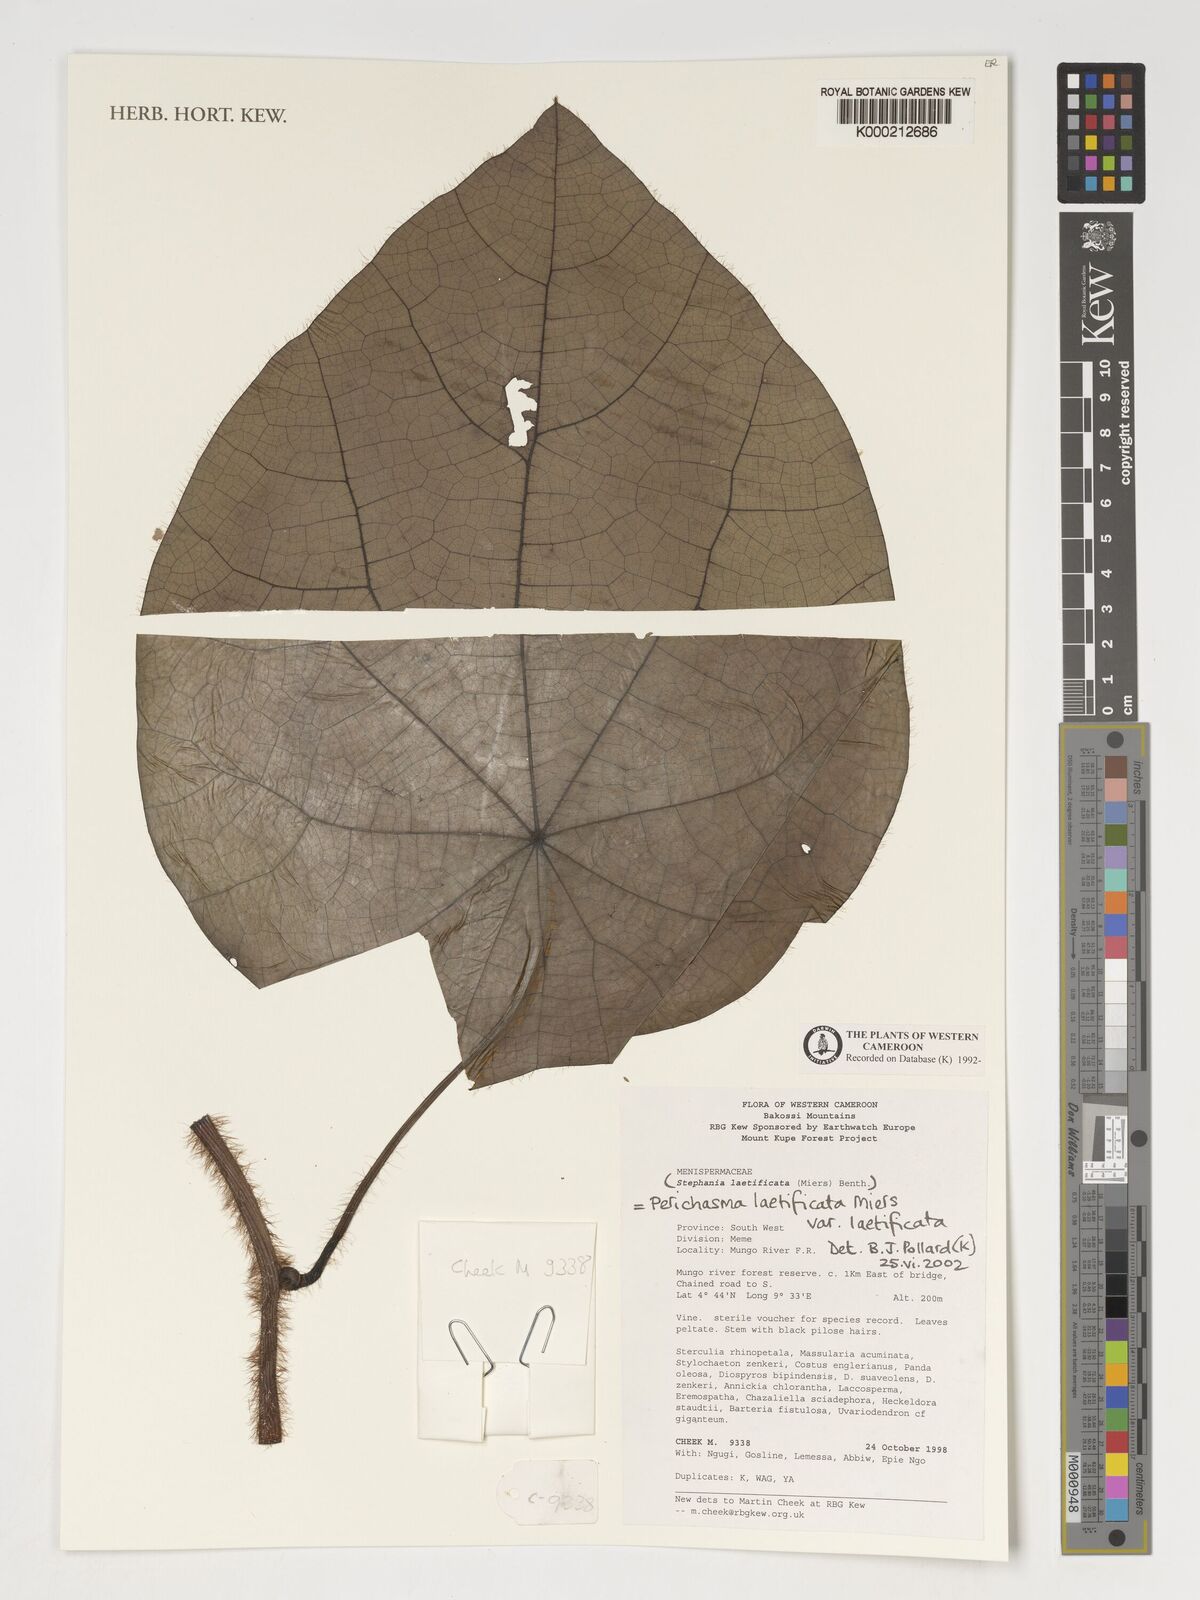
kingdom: Plantae
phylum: Tracheophyta
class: Magnoliopsida
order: Ranunculales
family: Menispermaceae
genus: Perichasma
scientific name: Perichasma laetificata
